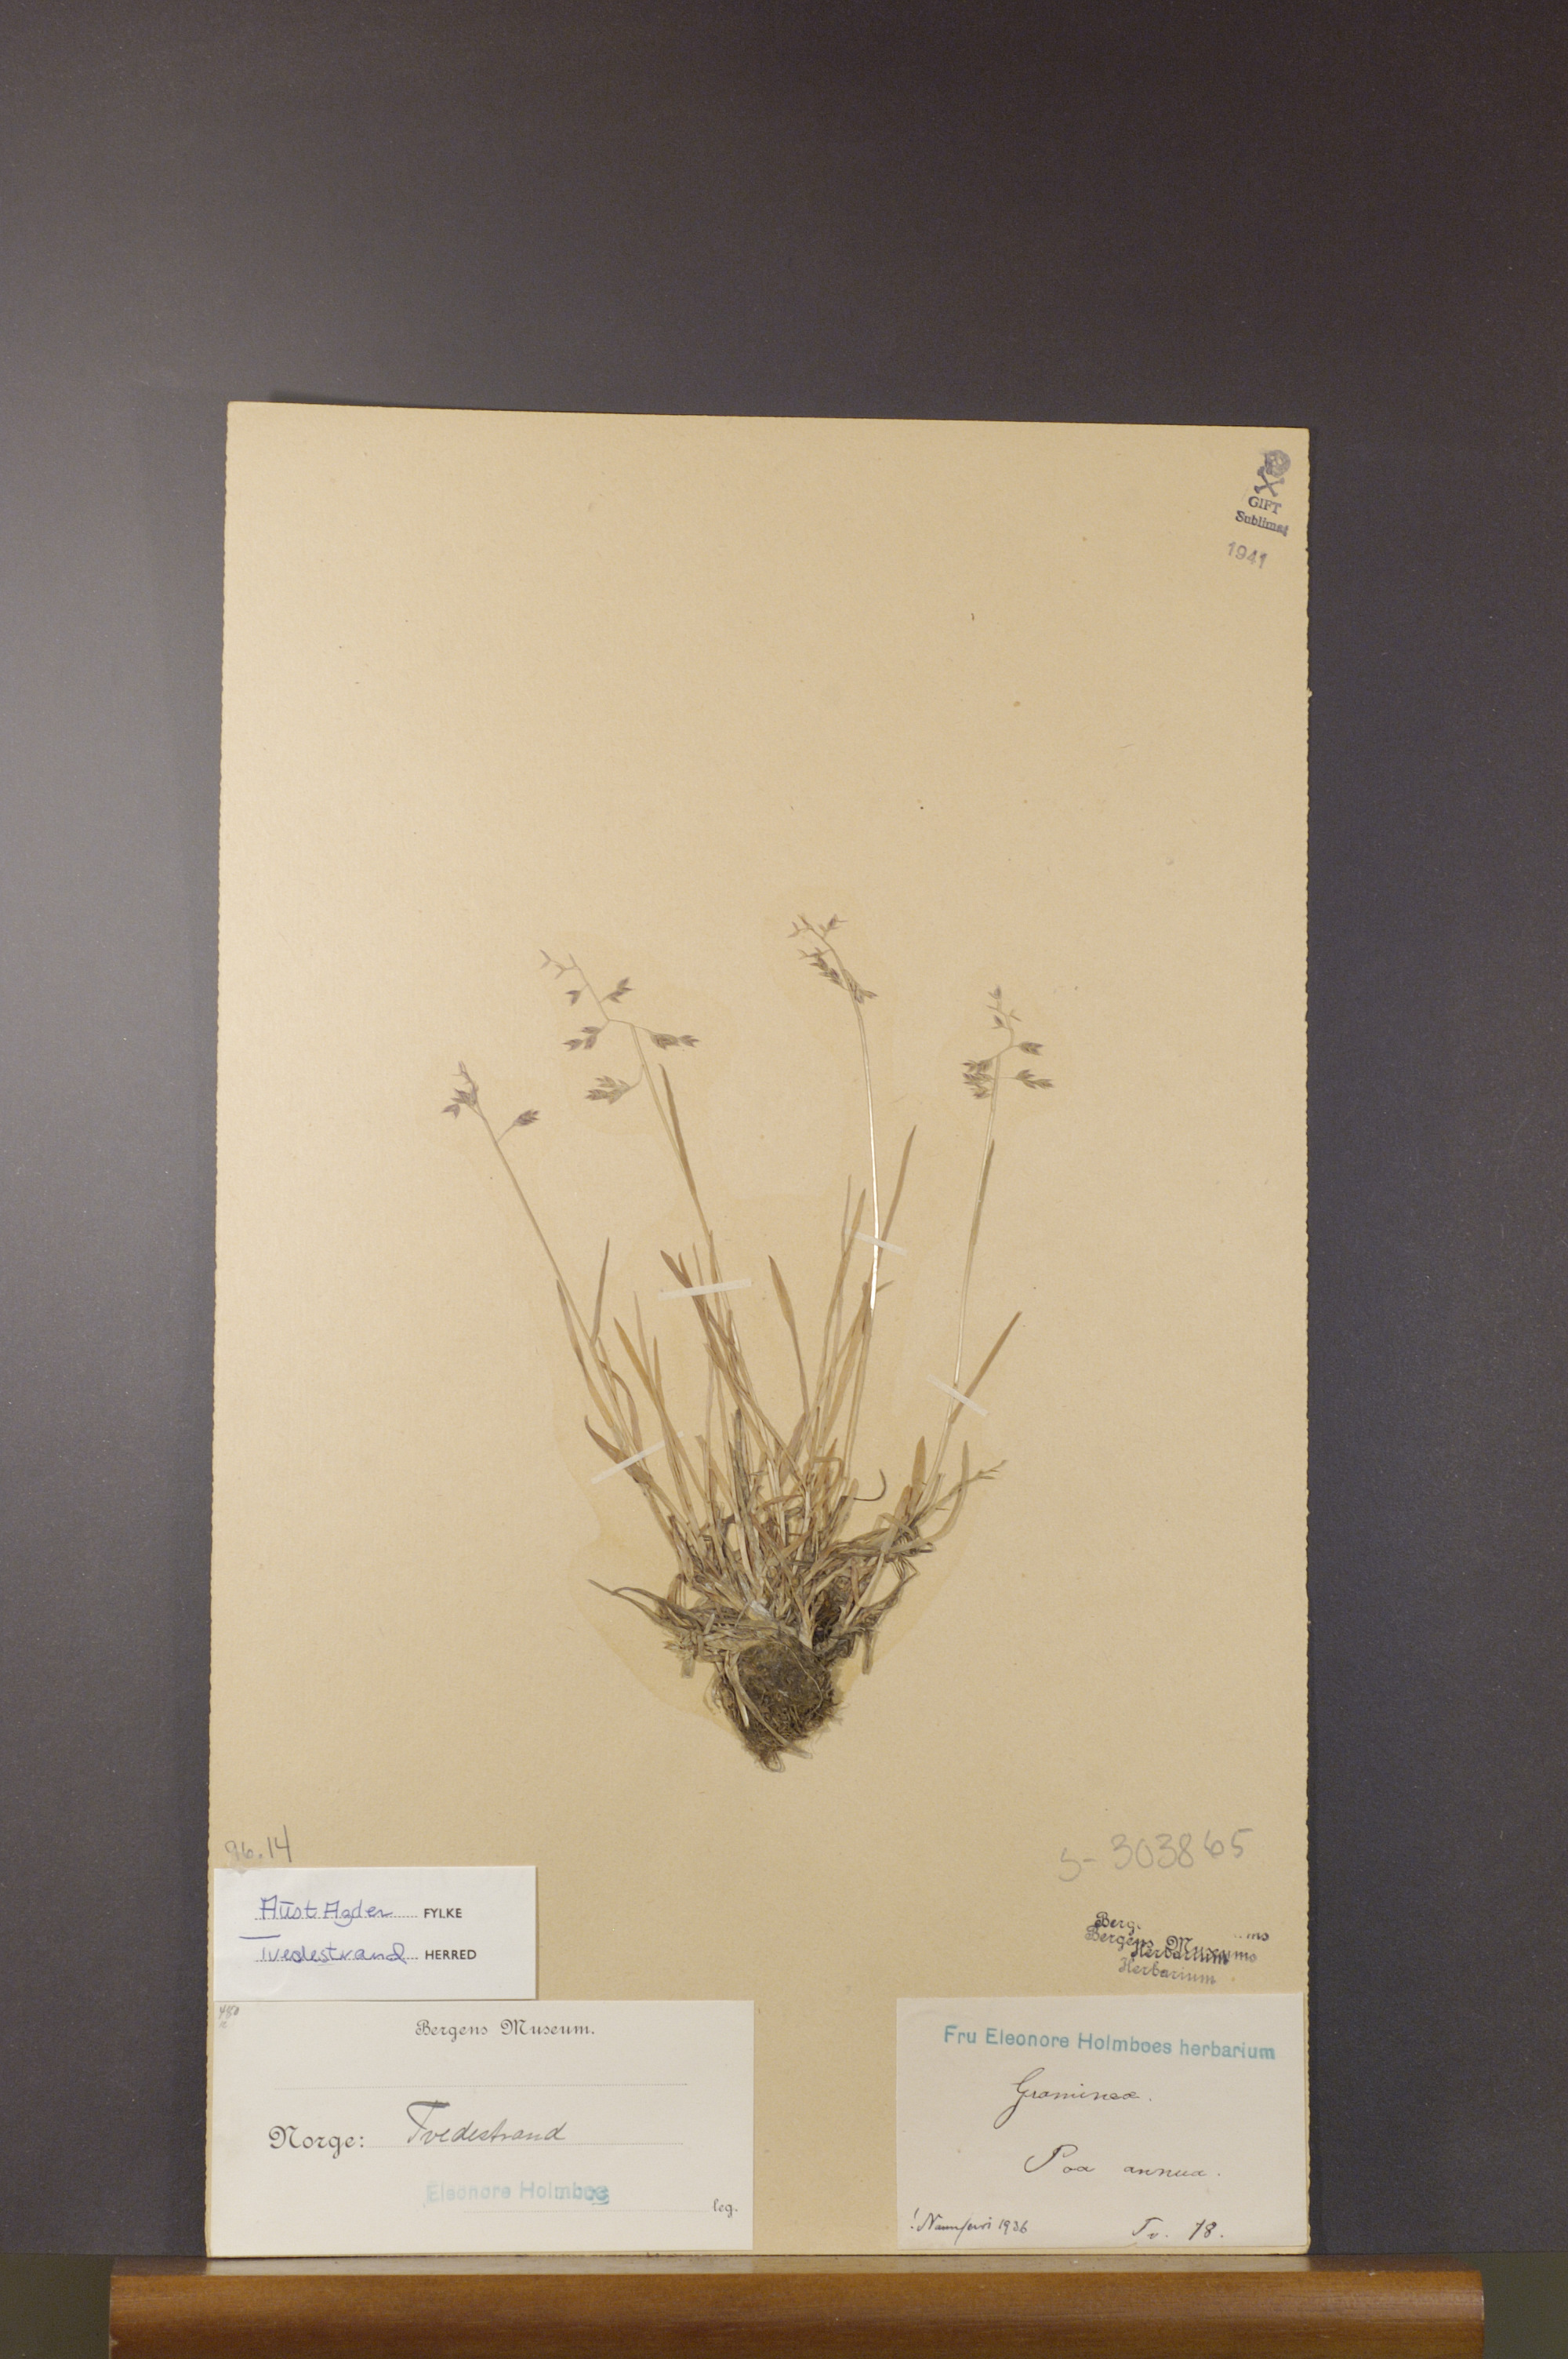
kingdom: Plantae
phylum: Tracheophyta
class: Liliopsida
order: Poales
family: Poaceae
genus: Poa
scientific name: Poa annua
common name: Annual bluegrass
